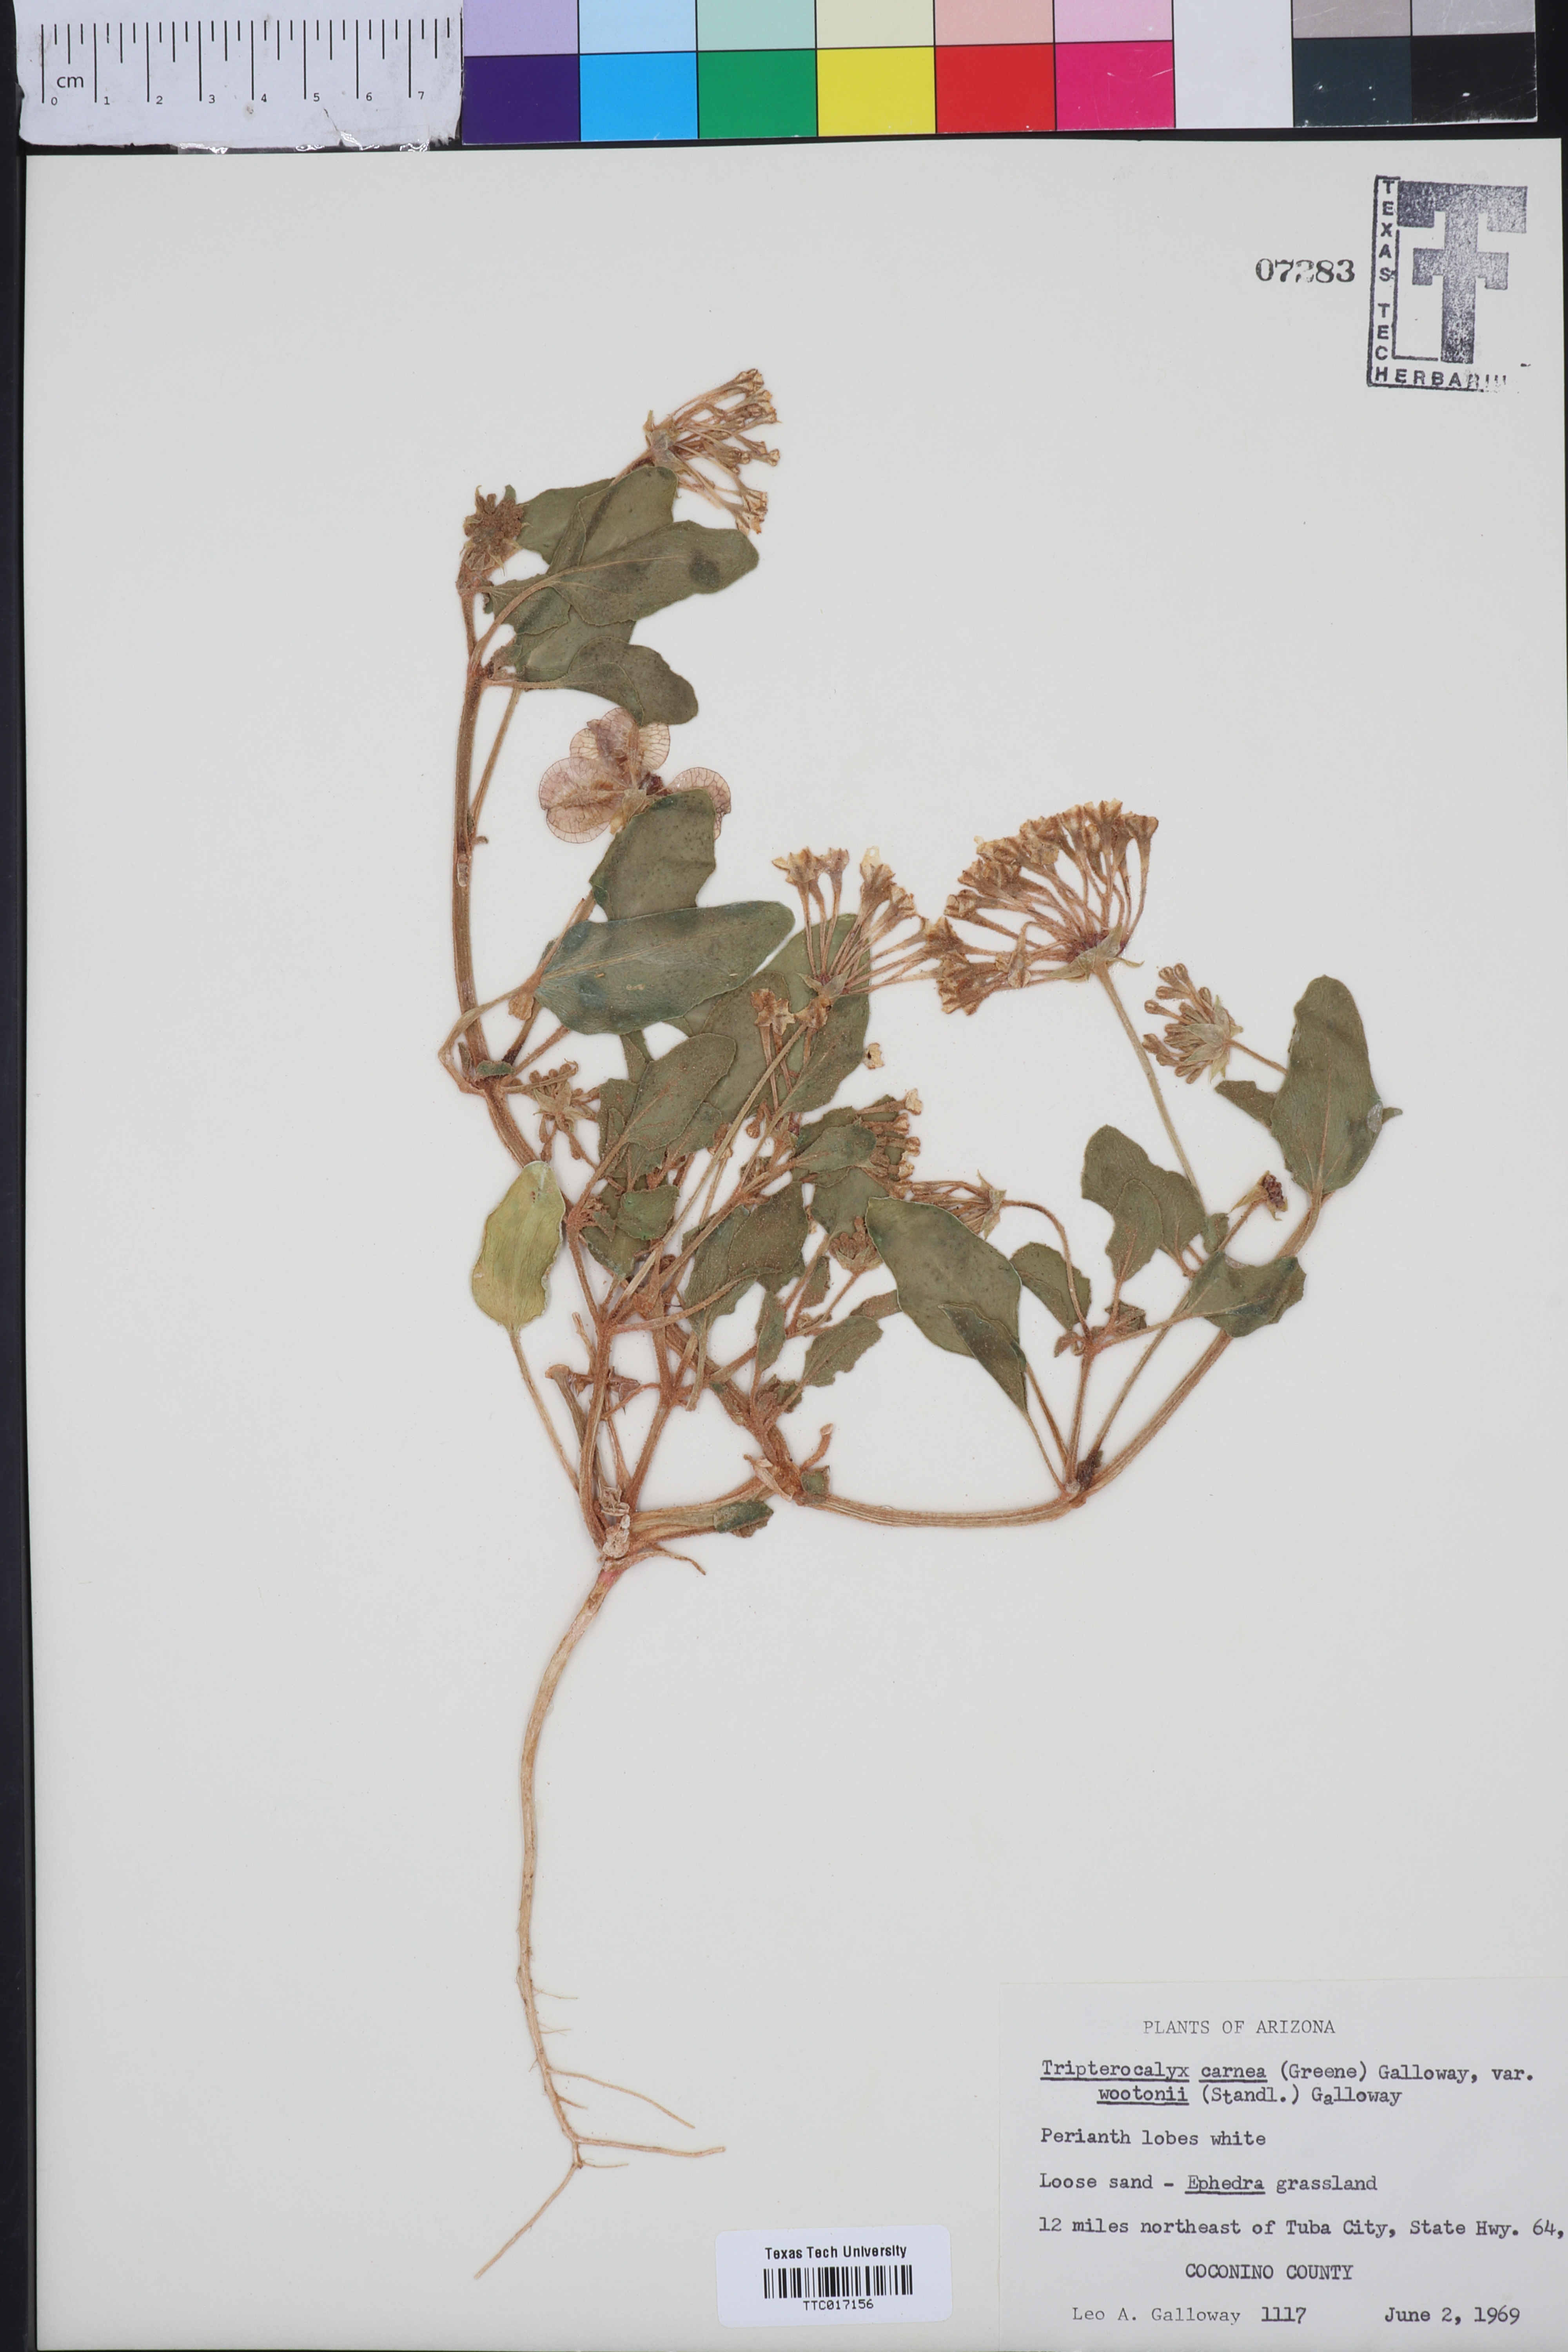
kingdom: Plantae
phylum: Tracheophyta
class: Magnoliopsida
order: Caryophyllales
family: Nyctaginaceae
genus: Tripterocalyx
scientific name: Tripterocalyx wootonii
